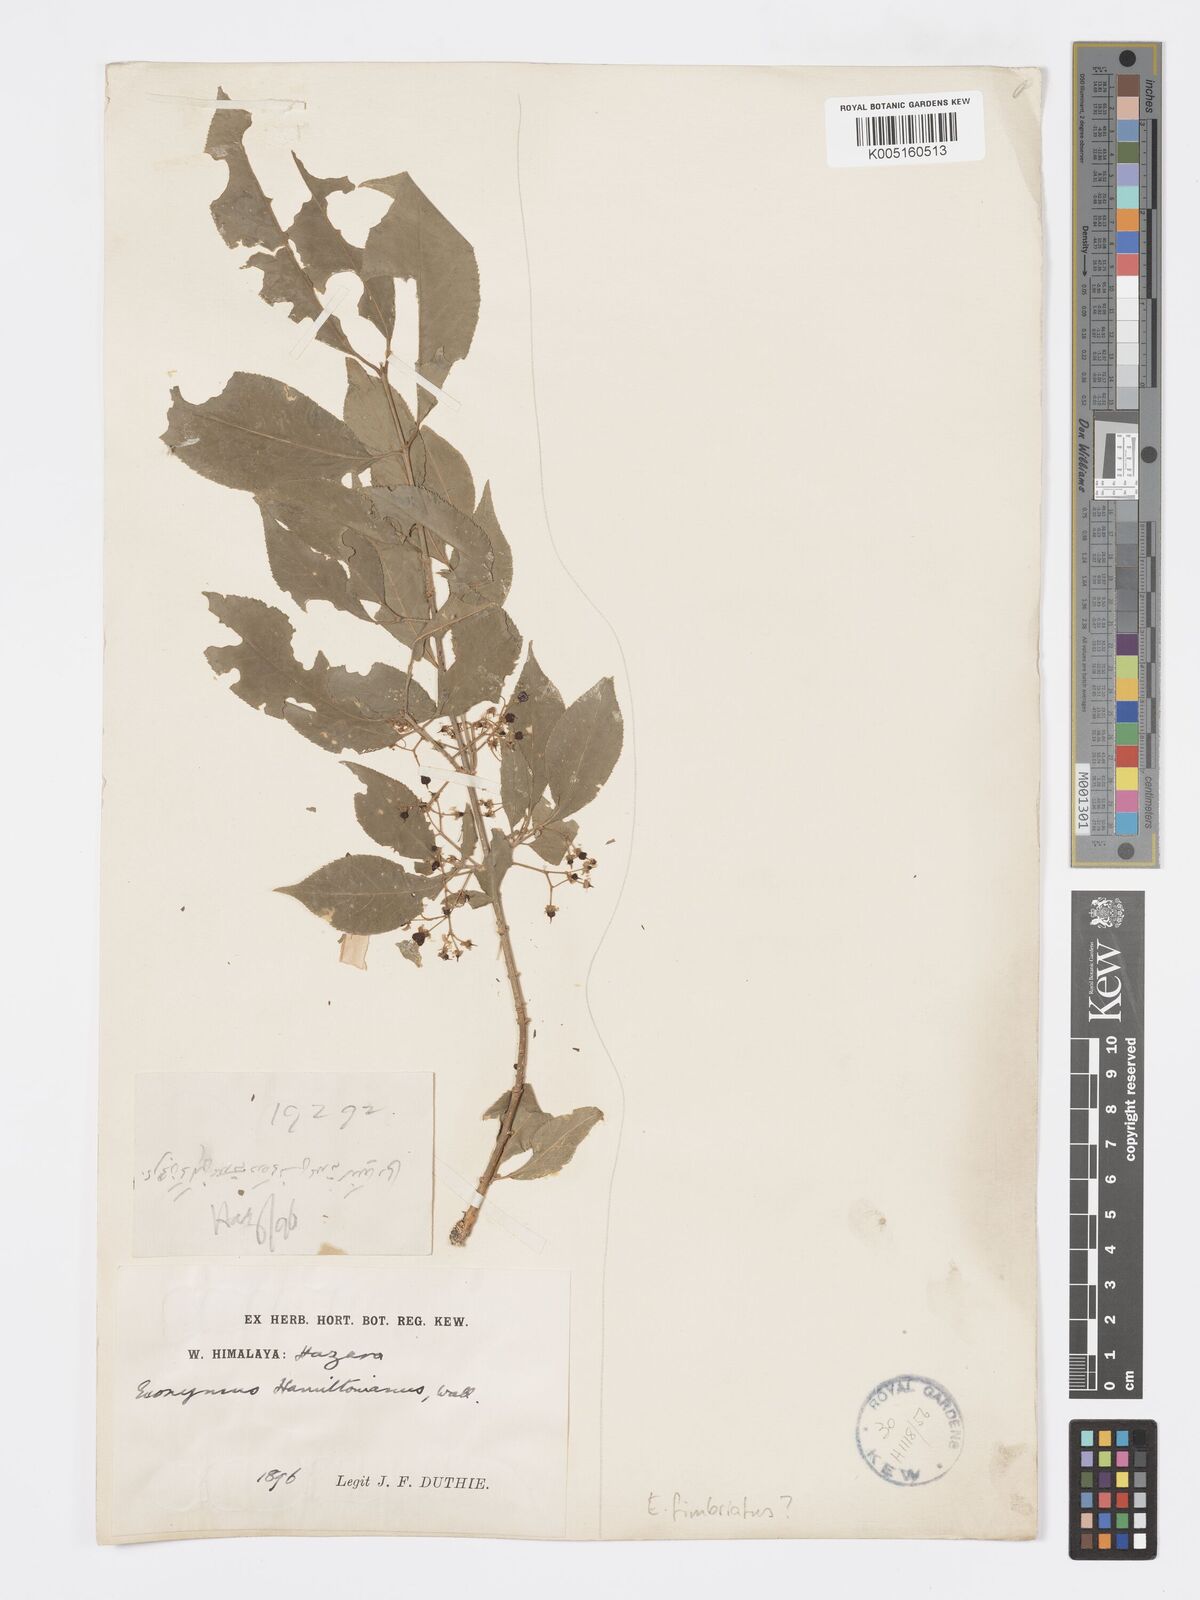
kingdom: Plantae
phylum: Tracheophyta
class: Magnoliopsida
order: Celastrales
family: Celastraceae
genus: Euonymus
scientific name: Euonymus
